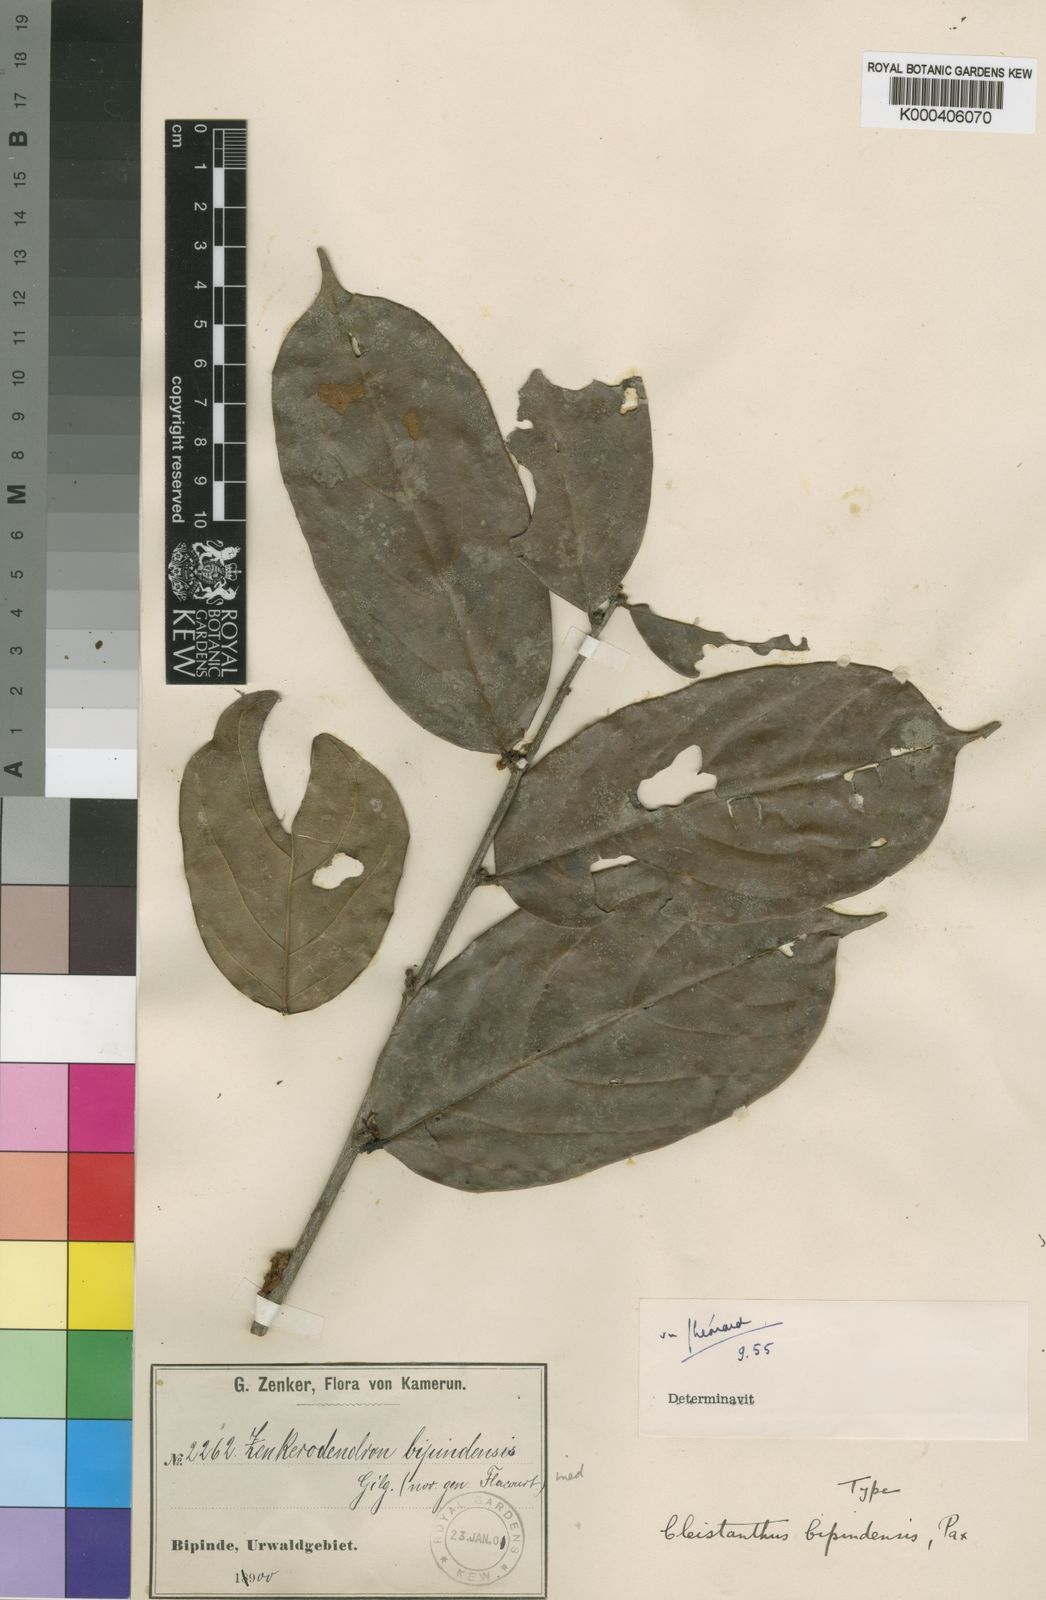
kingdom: Plantae
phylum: Tracheophyta
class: Magnoliopsida
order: Malpighiales
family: Phyllanthaceae
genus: Cleistanthus
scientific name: Cleistanthus
